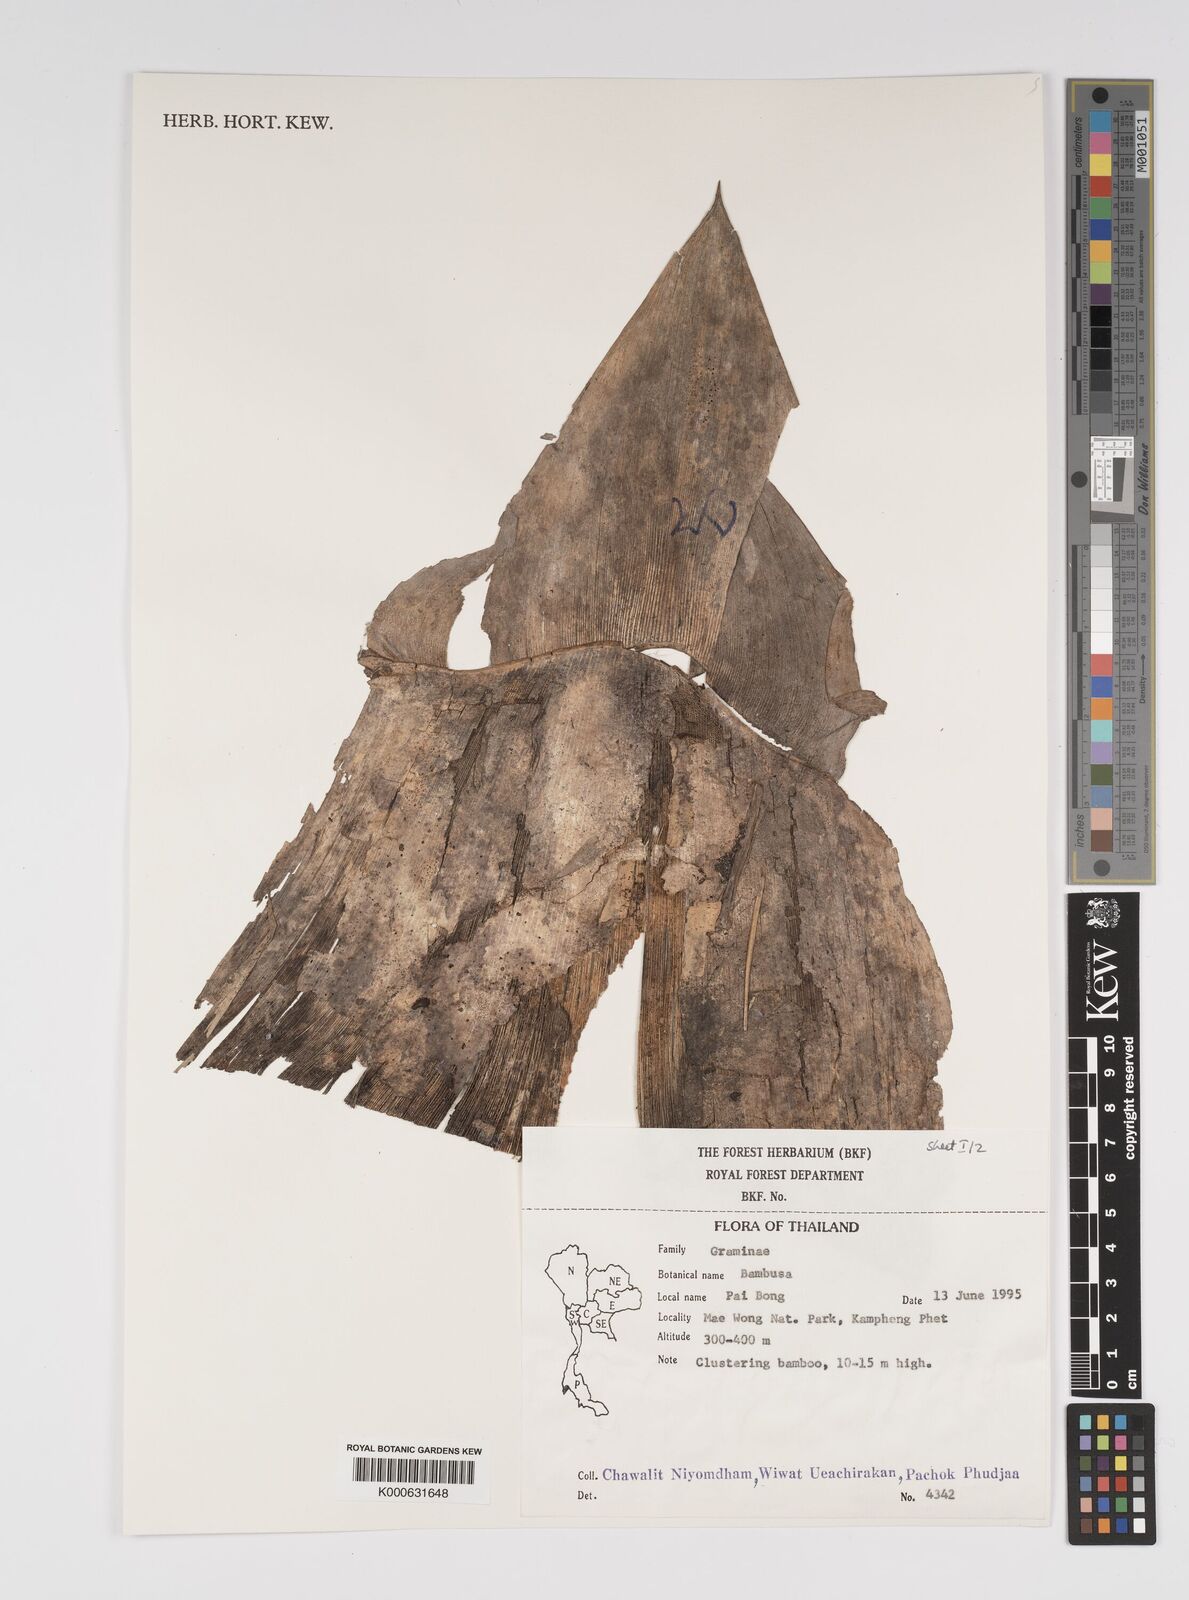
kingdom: Plantae
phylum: Tracheophyta
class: Liliopsida
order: Poales
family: Poaceae
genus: Bambusa
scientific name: Bambusa
